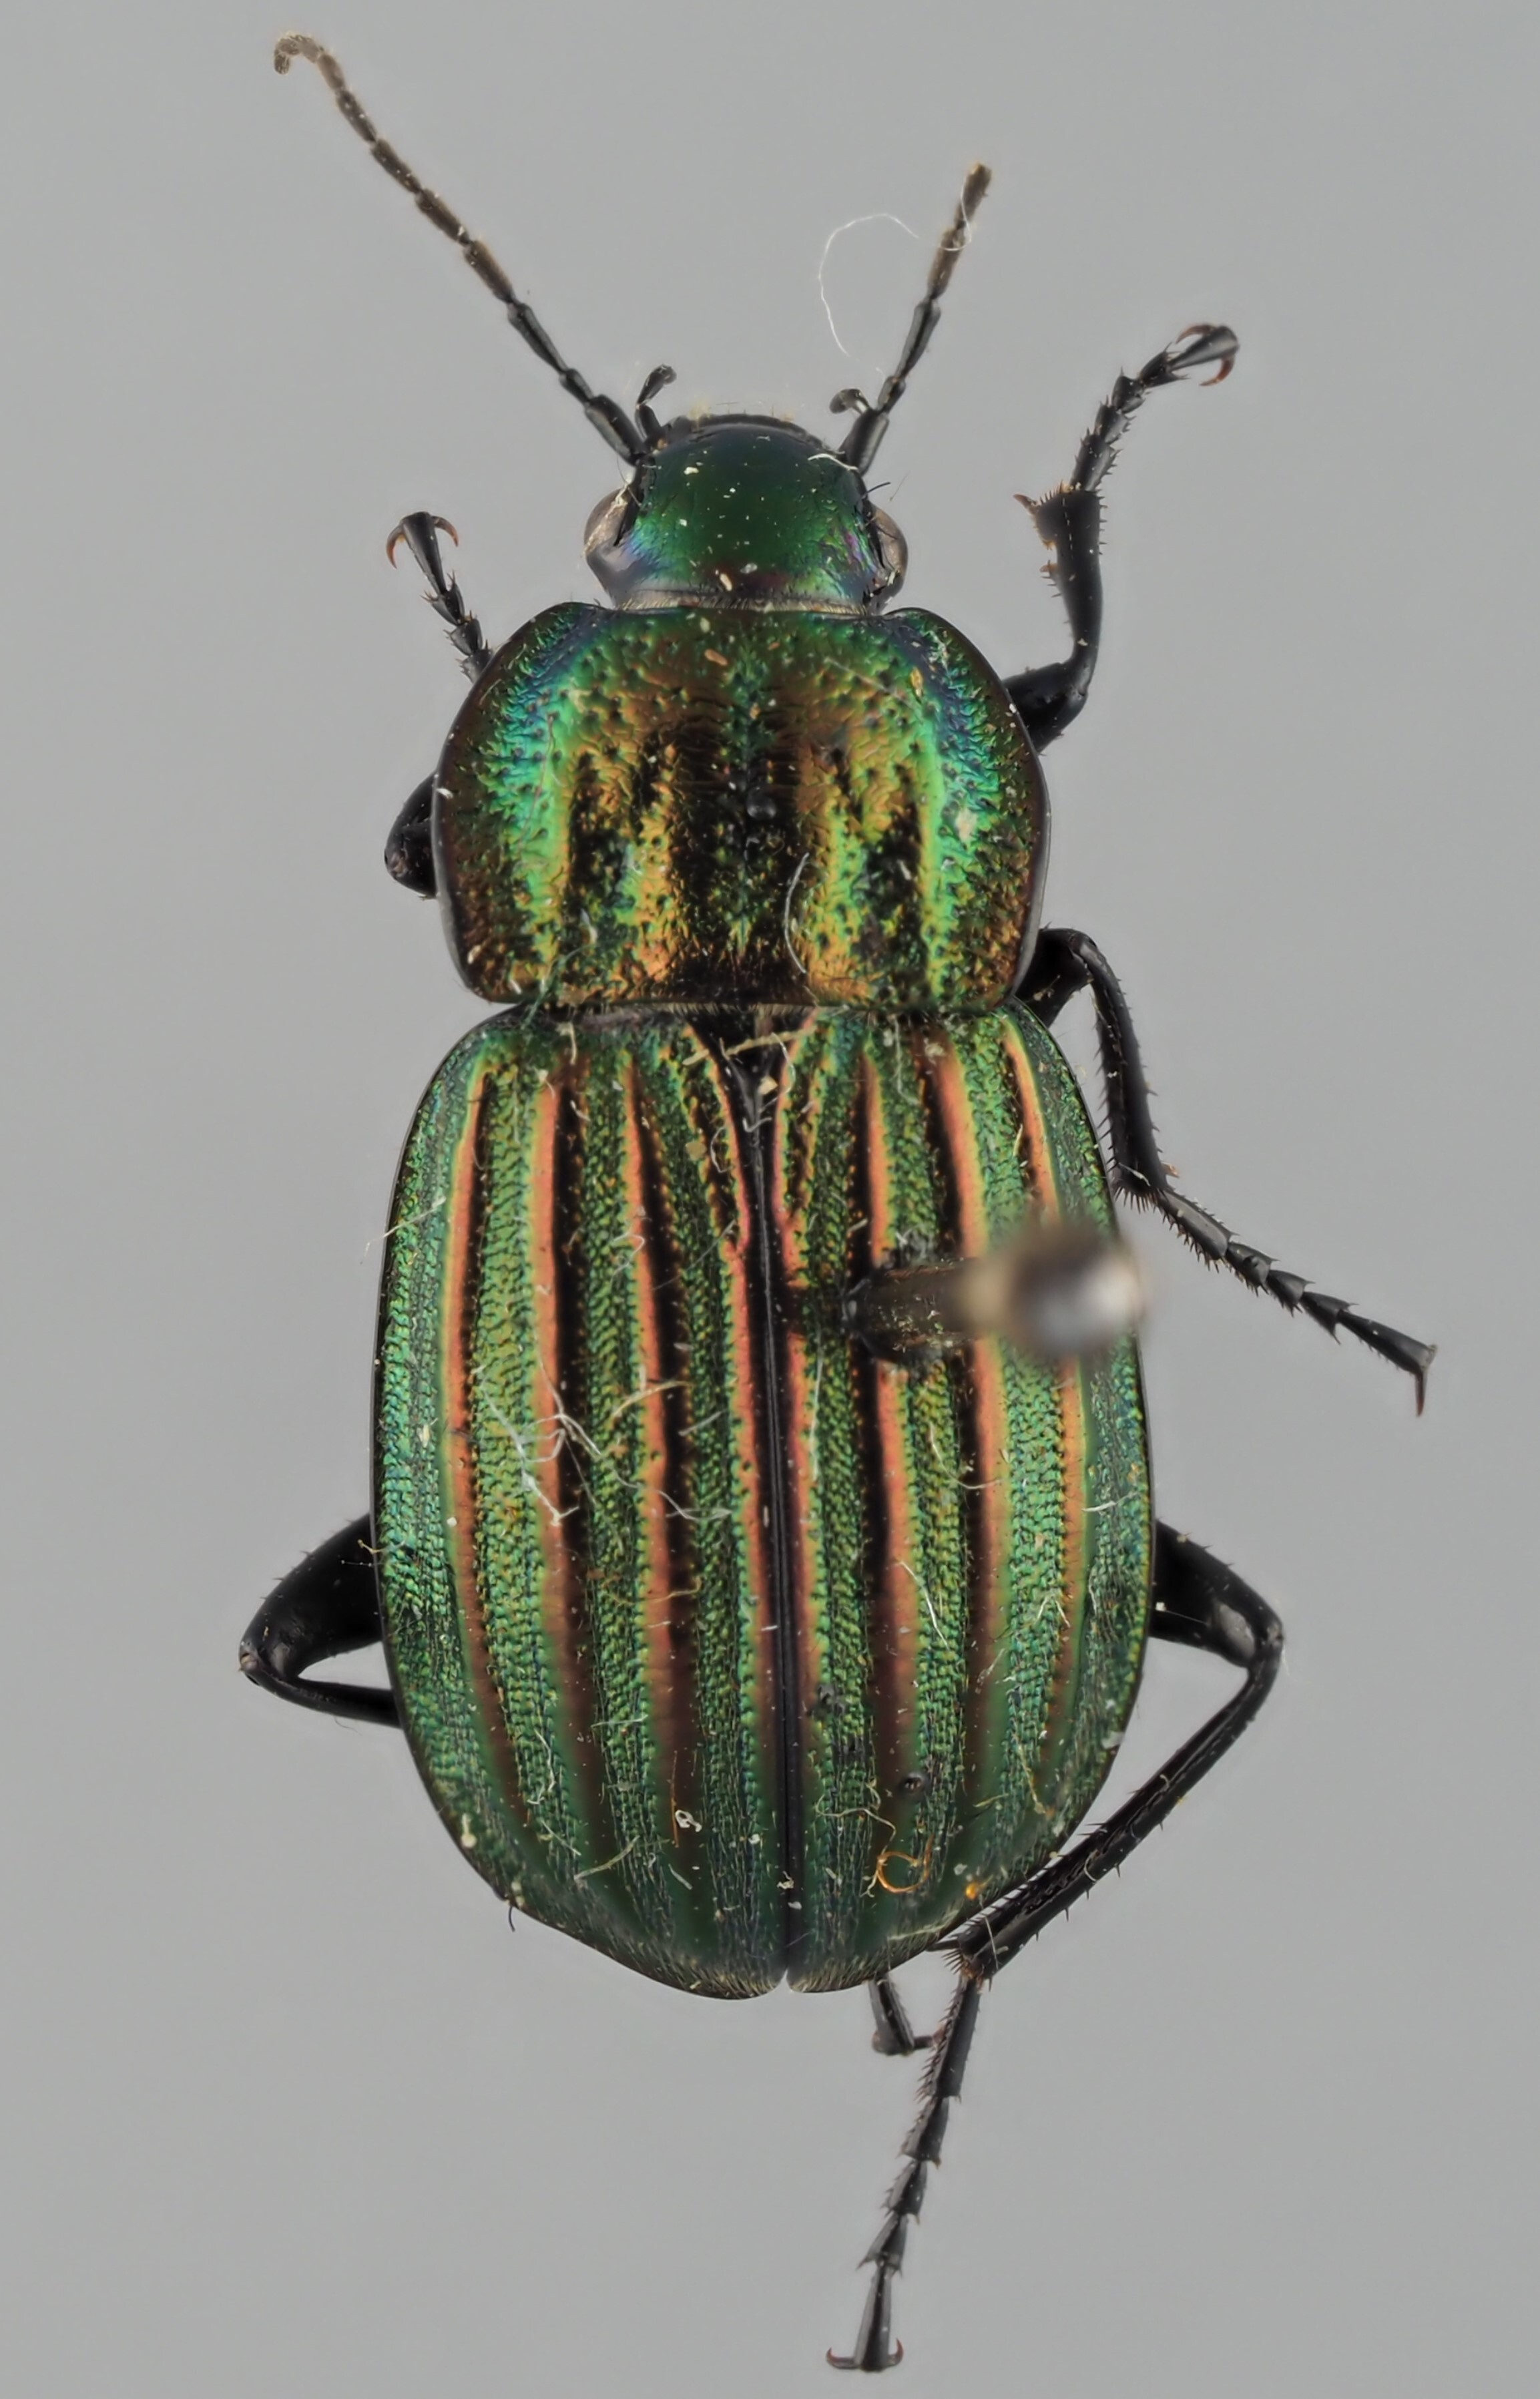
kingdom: Animalia
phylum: Arthropoda
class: Insecta
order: Coleoptera
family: Carabidae
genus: Chlaenius
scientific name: Chlaenius costulatus
